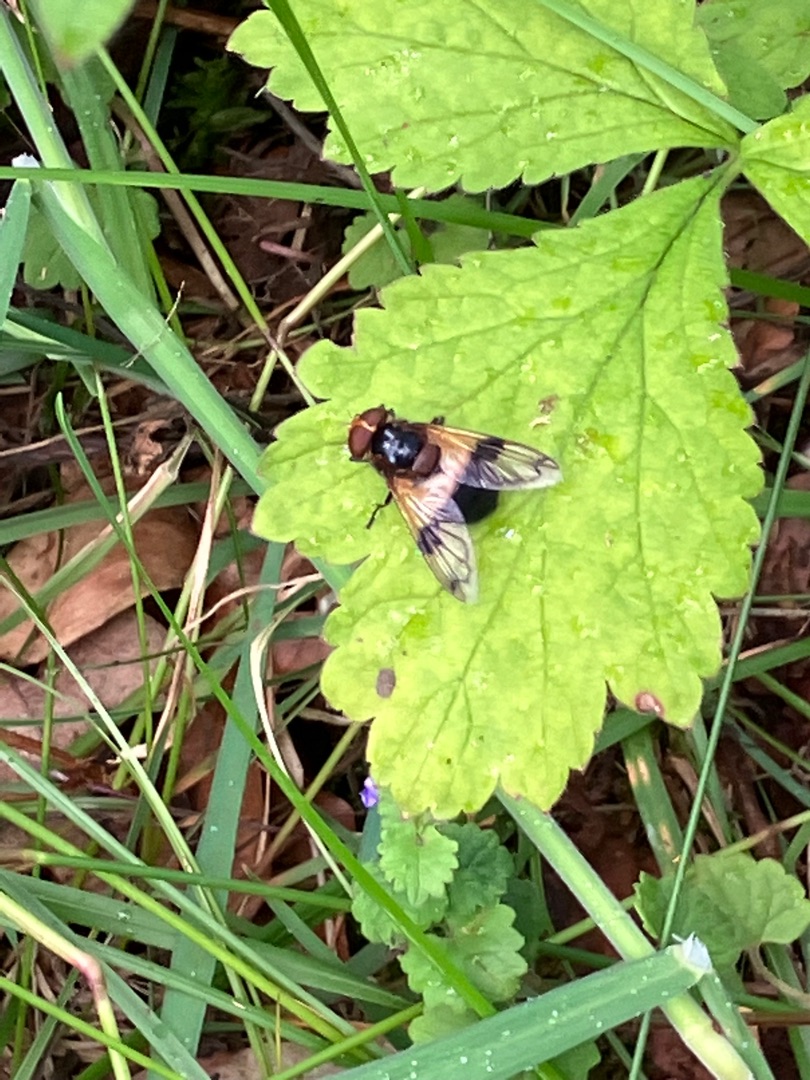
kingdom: Animalia
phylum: Arthropoda
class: Insecta
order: Diptera
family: Syrphidae
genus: Volucella
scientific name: Volucella pellucens
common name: Hvidbåndet humlesvirreflue
